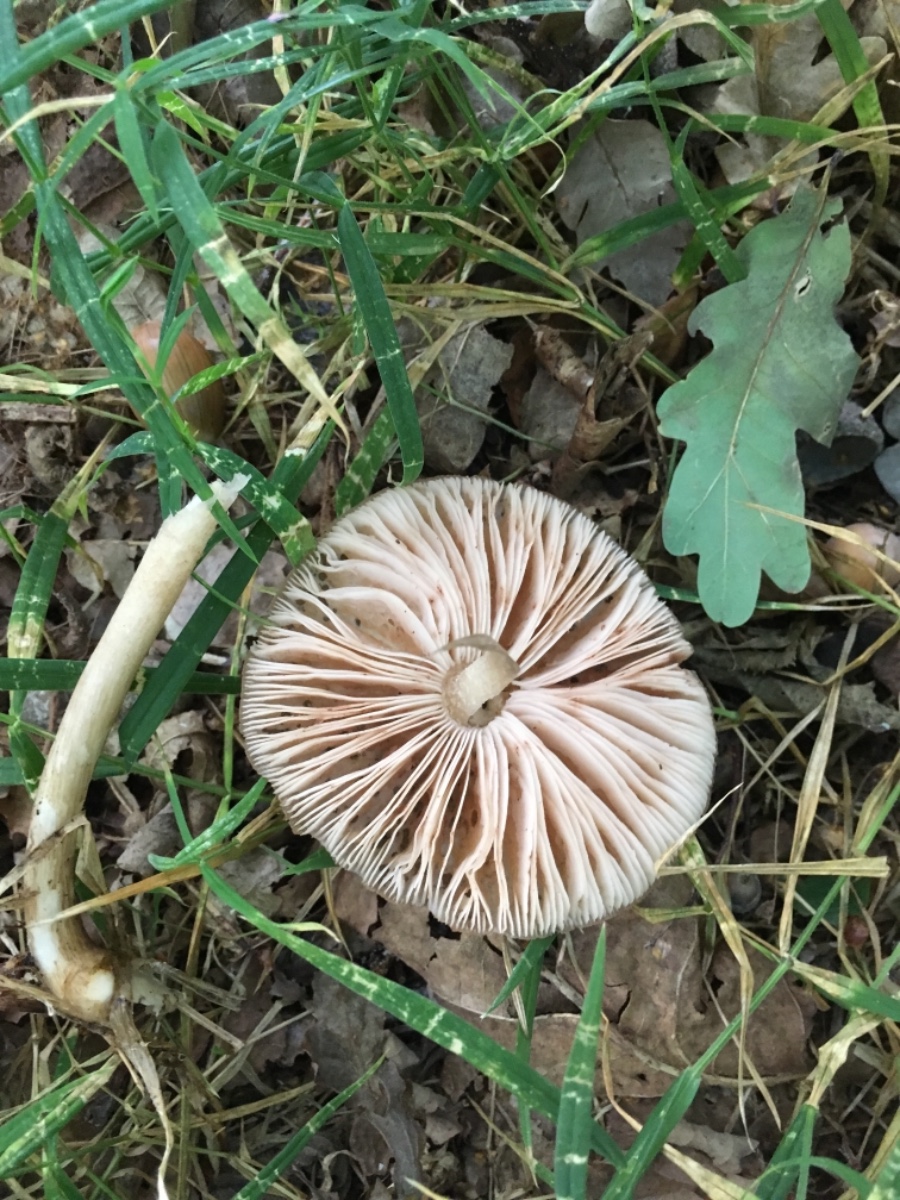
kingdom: Fungi
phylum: Basidiomycota
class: Agaricomycetes
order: Agaricales
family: Pluteaceae
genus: Pluteus
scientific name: Pluteus cervinus
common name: sodfarvet skærmhat
